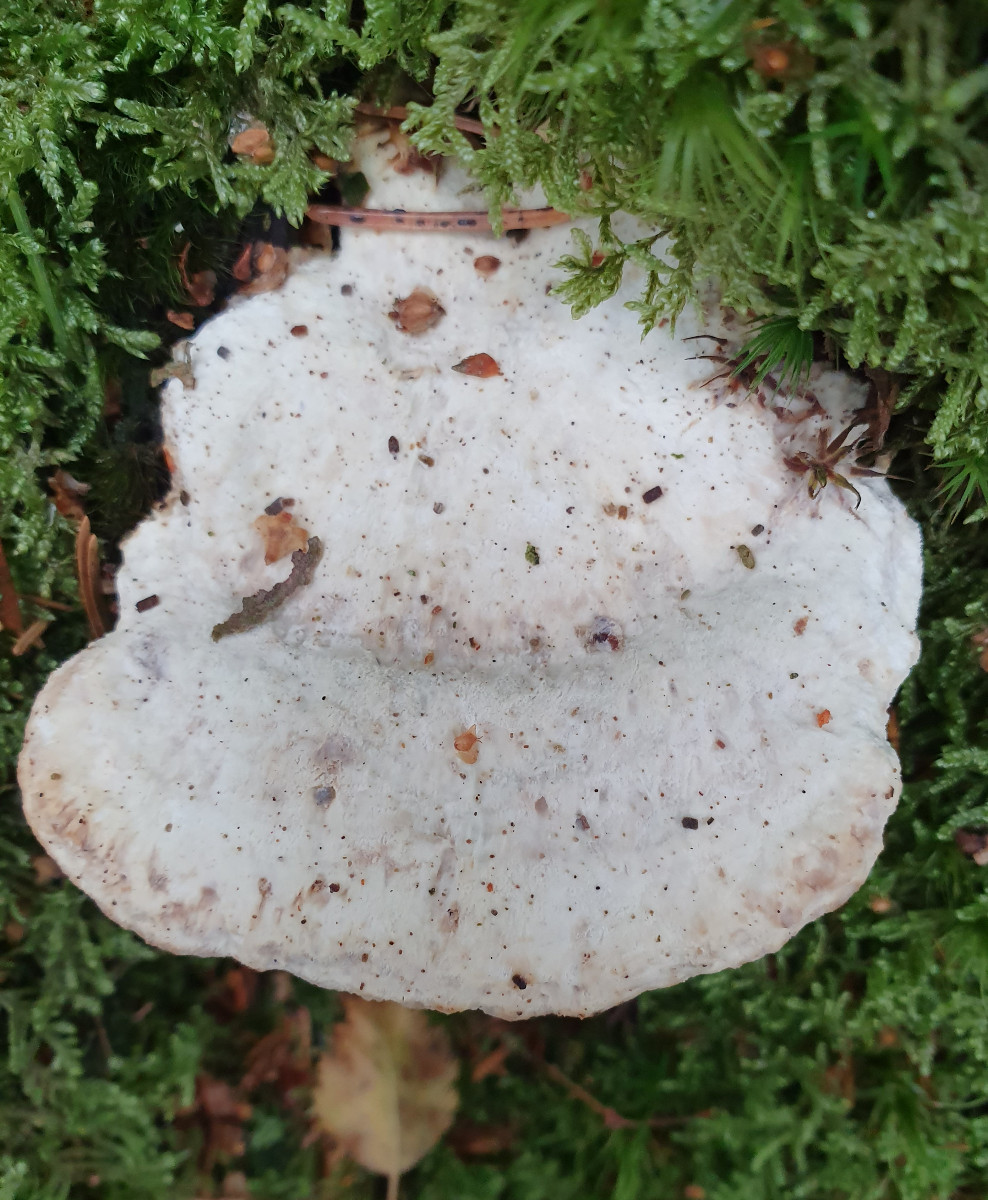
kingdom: Fungi
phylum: Basidiomycota
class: Agaricomycetes
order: Polyporales
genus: Calcipostia
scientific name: Calcipostia guttulata
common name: dråbe-kødporesvamp
